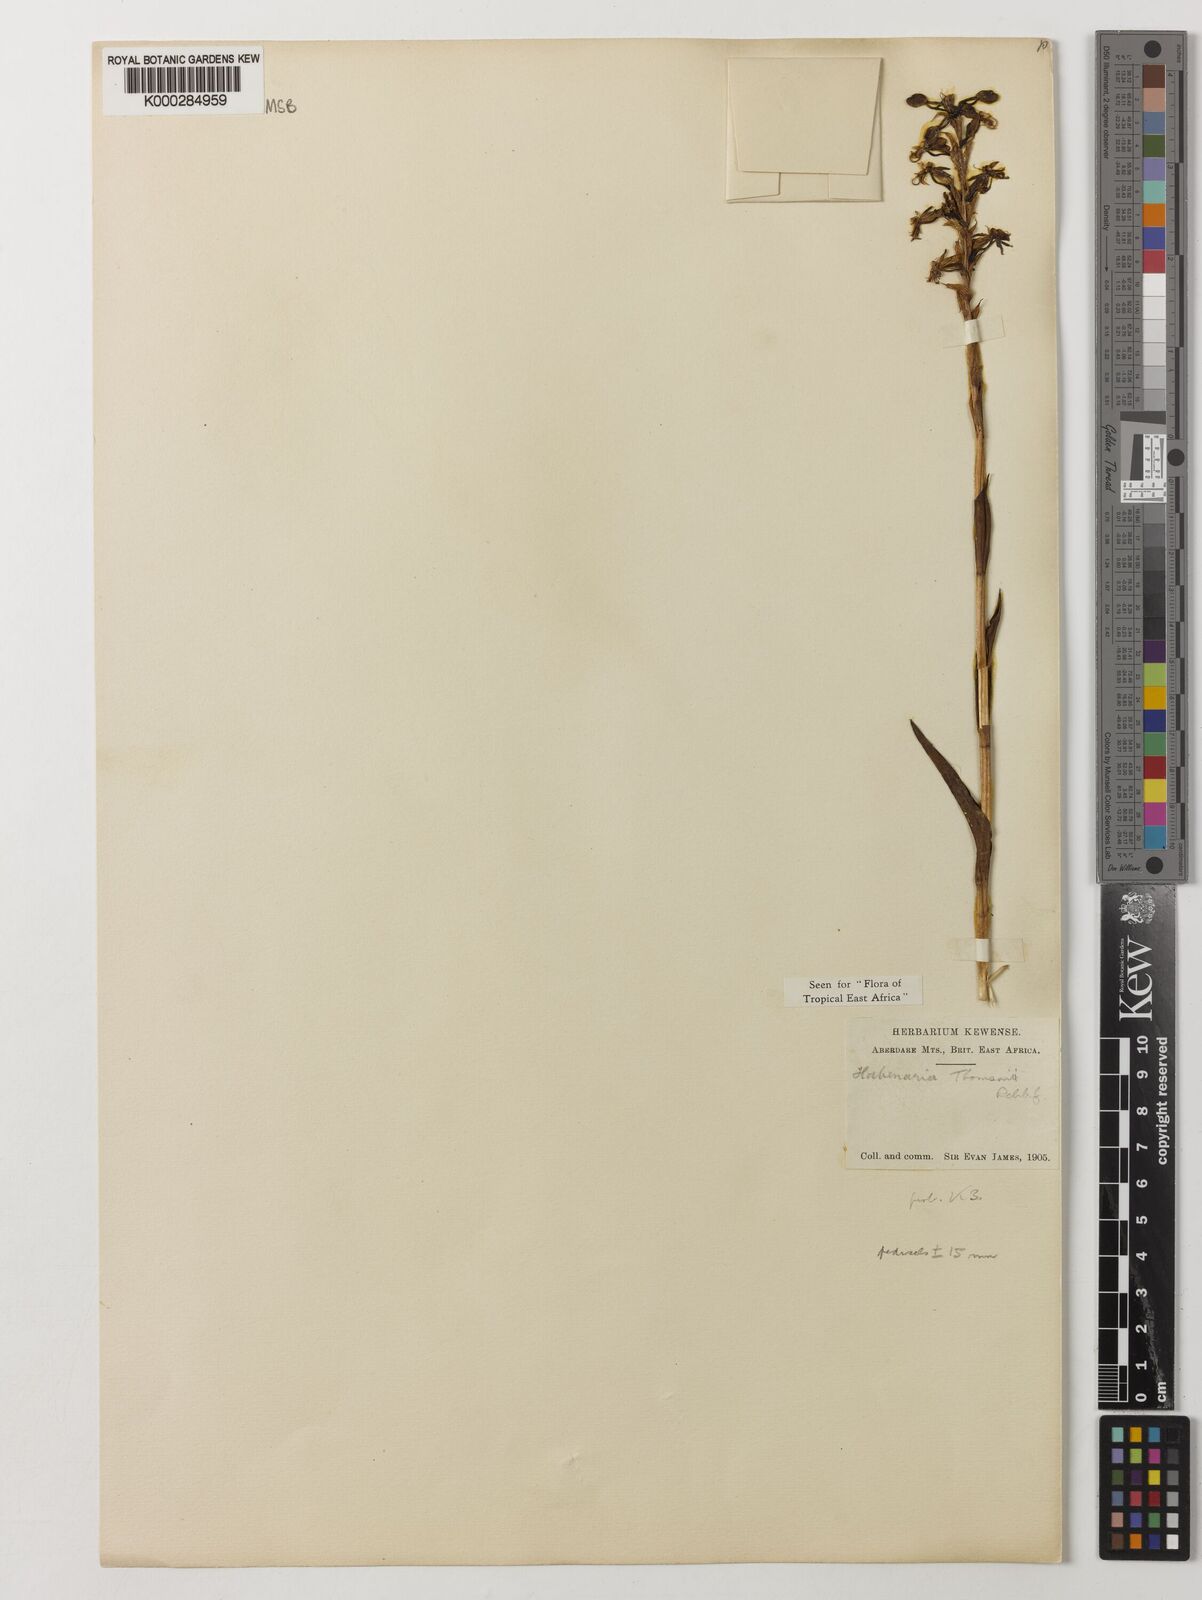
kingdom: Plantae
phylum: Tracheophyta
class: Liliopsida
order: Asparagales
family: Orchidaceae
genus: Habenaria
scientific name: Habenaria thomsonii
